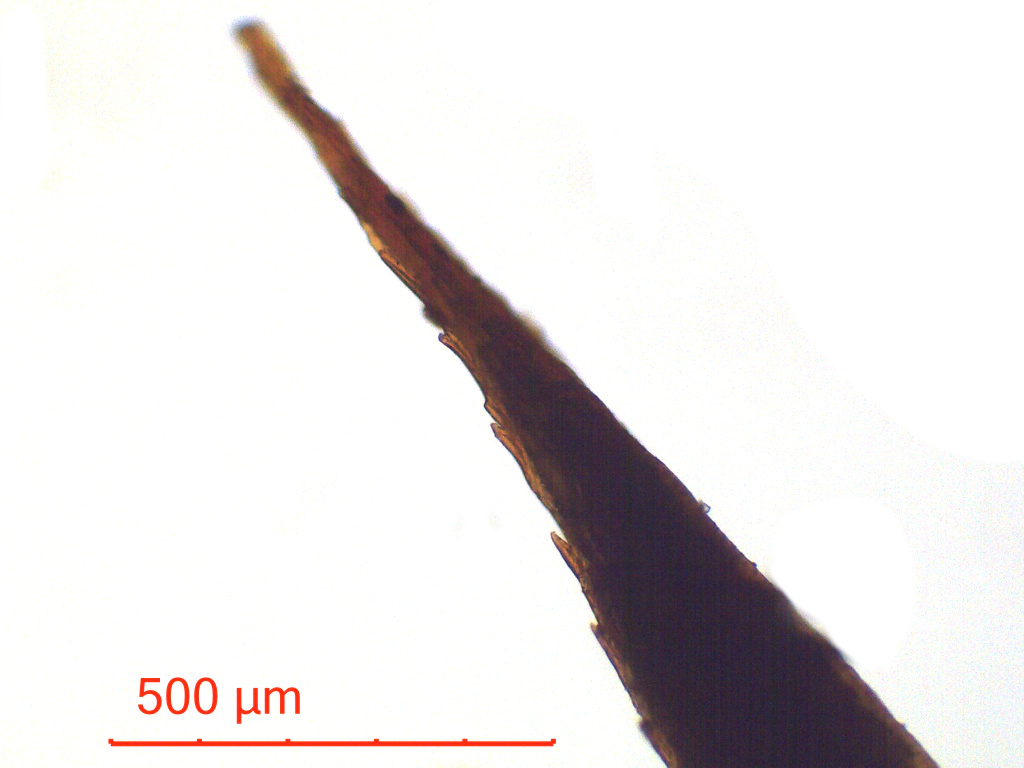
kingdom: Plantae
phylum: Bryophyta
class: Polytrichopsida
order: Polytrichales
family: Polytrichaceae
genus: Polytrichum
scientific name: Polytrichum commune
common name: Common haircap
